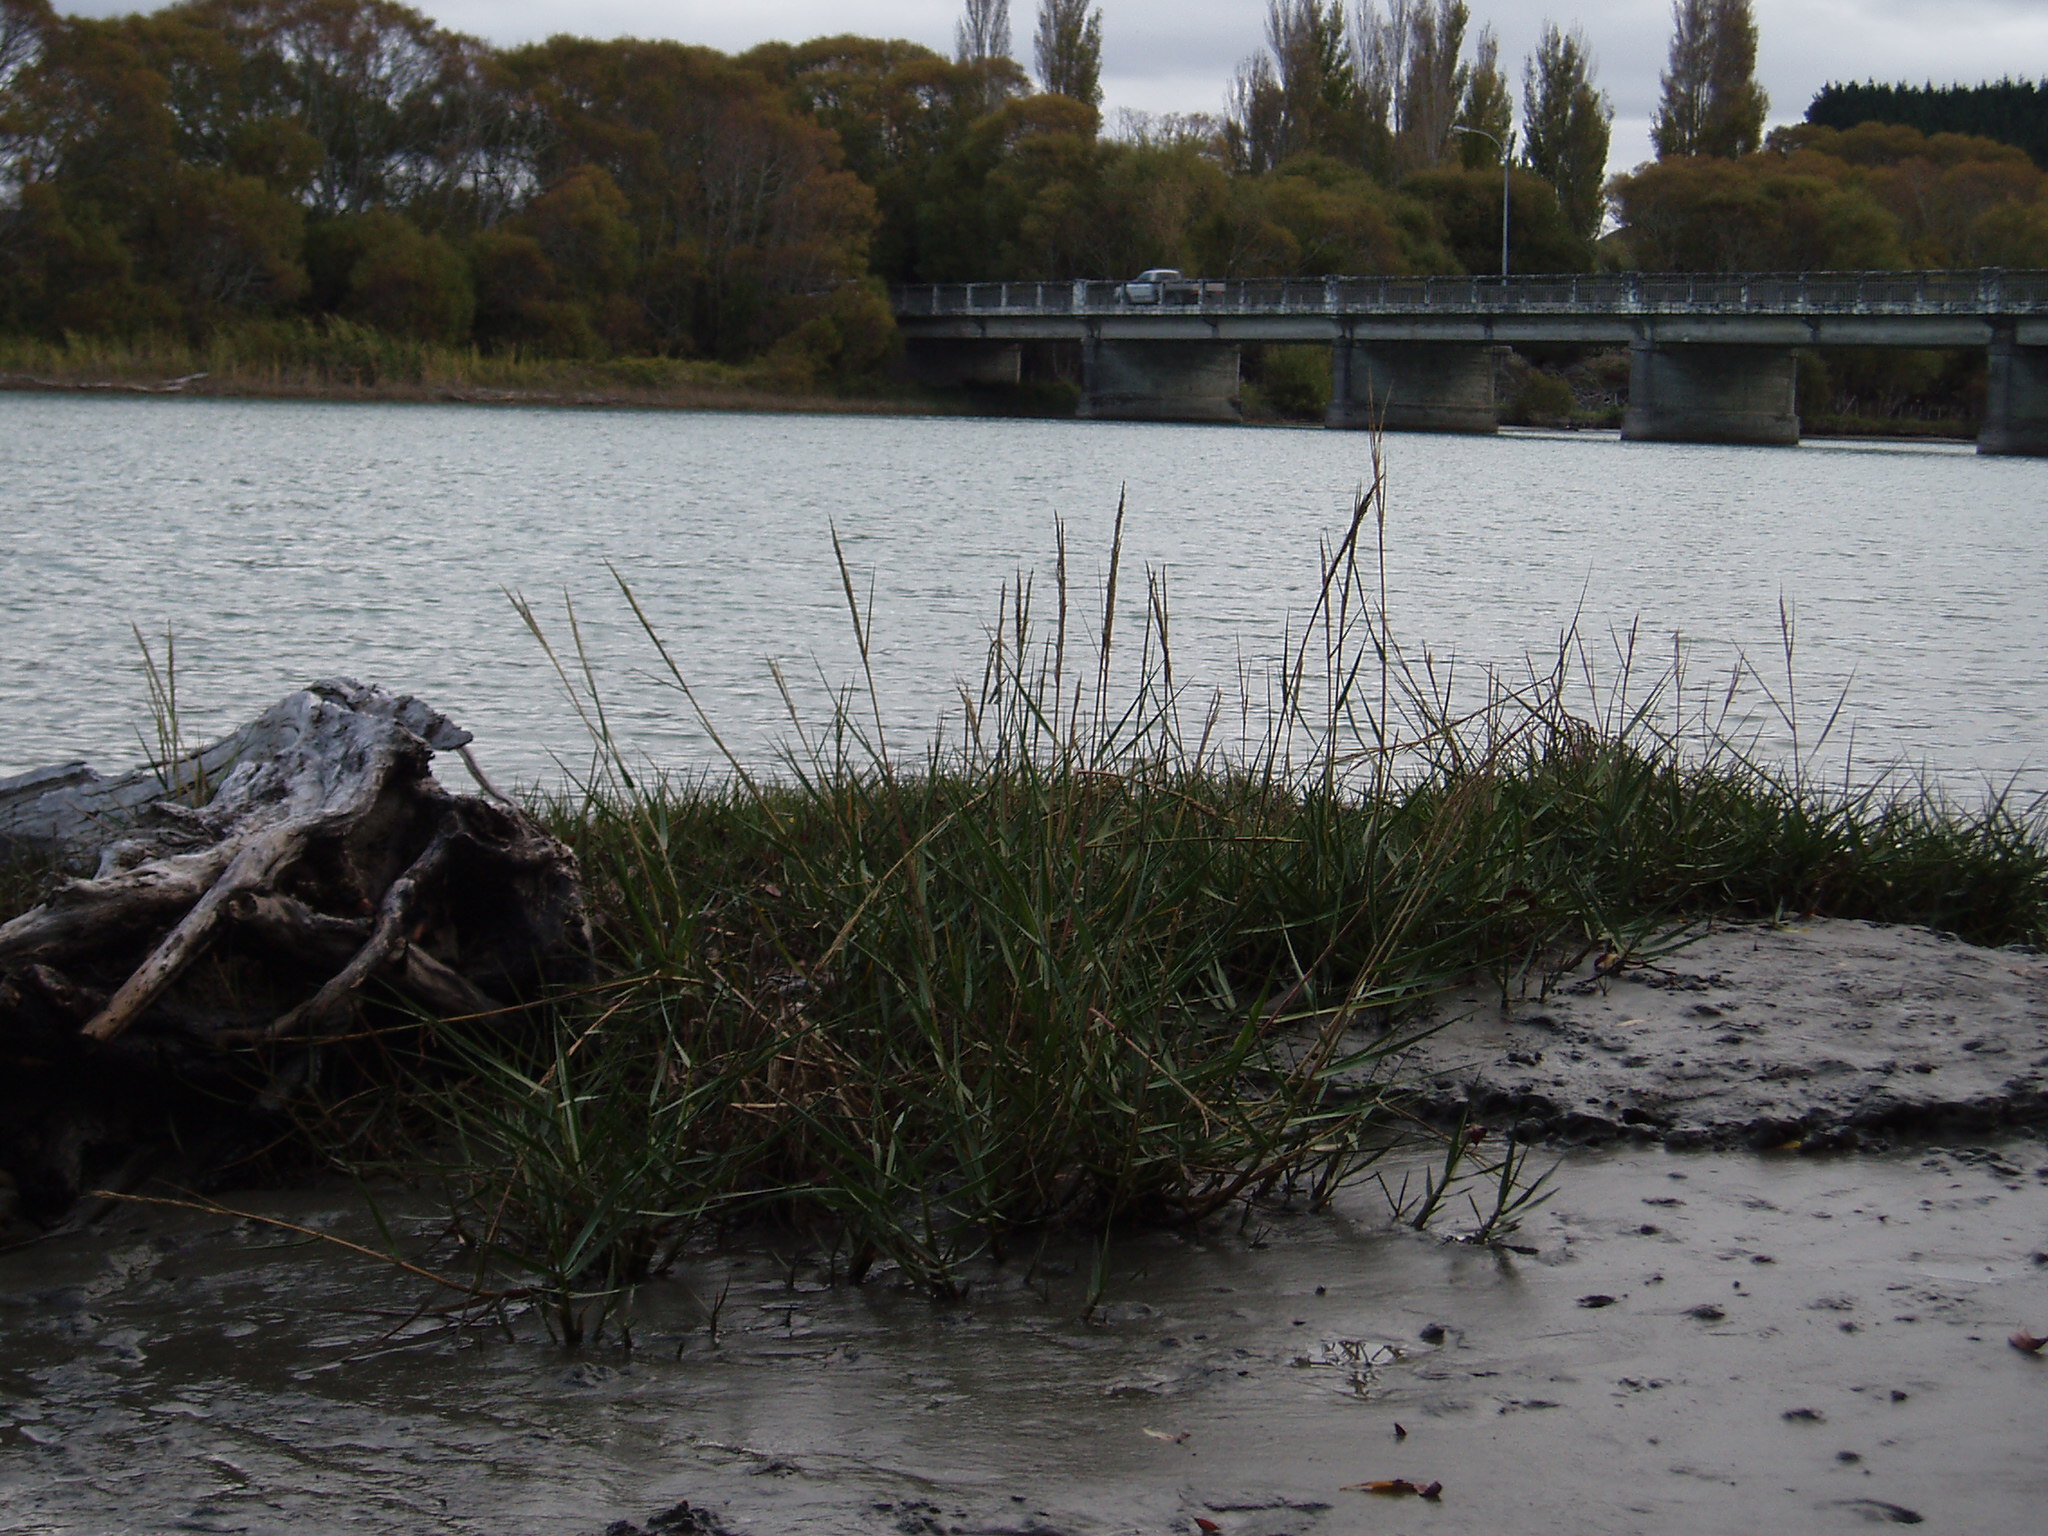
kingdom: Plantae
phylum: Tracheophyta
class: Liliopsida
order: Poales
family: Poaceae
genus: Sporobolus
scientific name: Sporobolus anglicus
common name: English cordgrass
